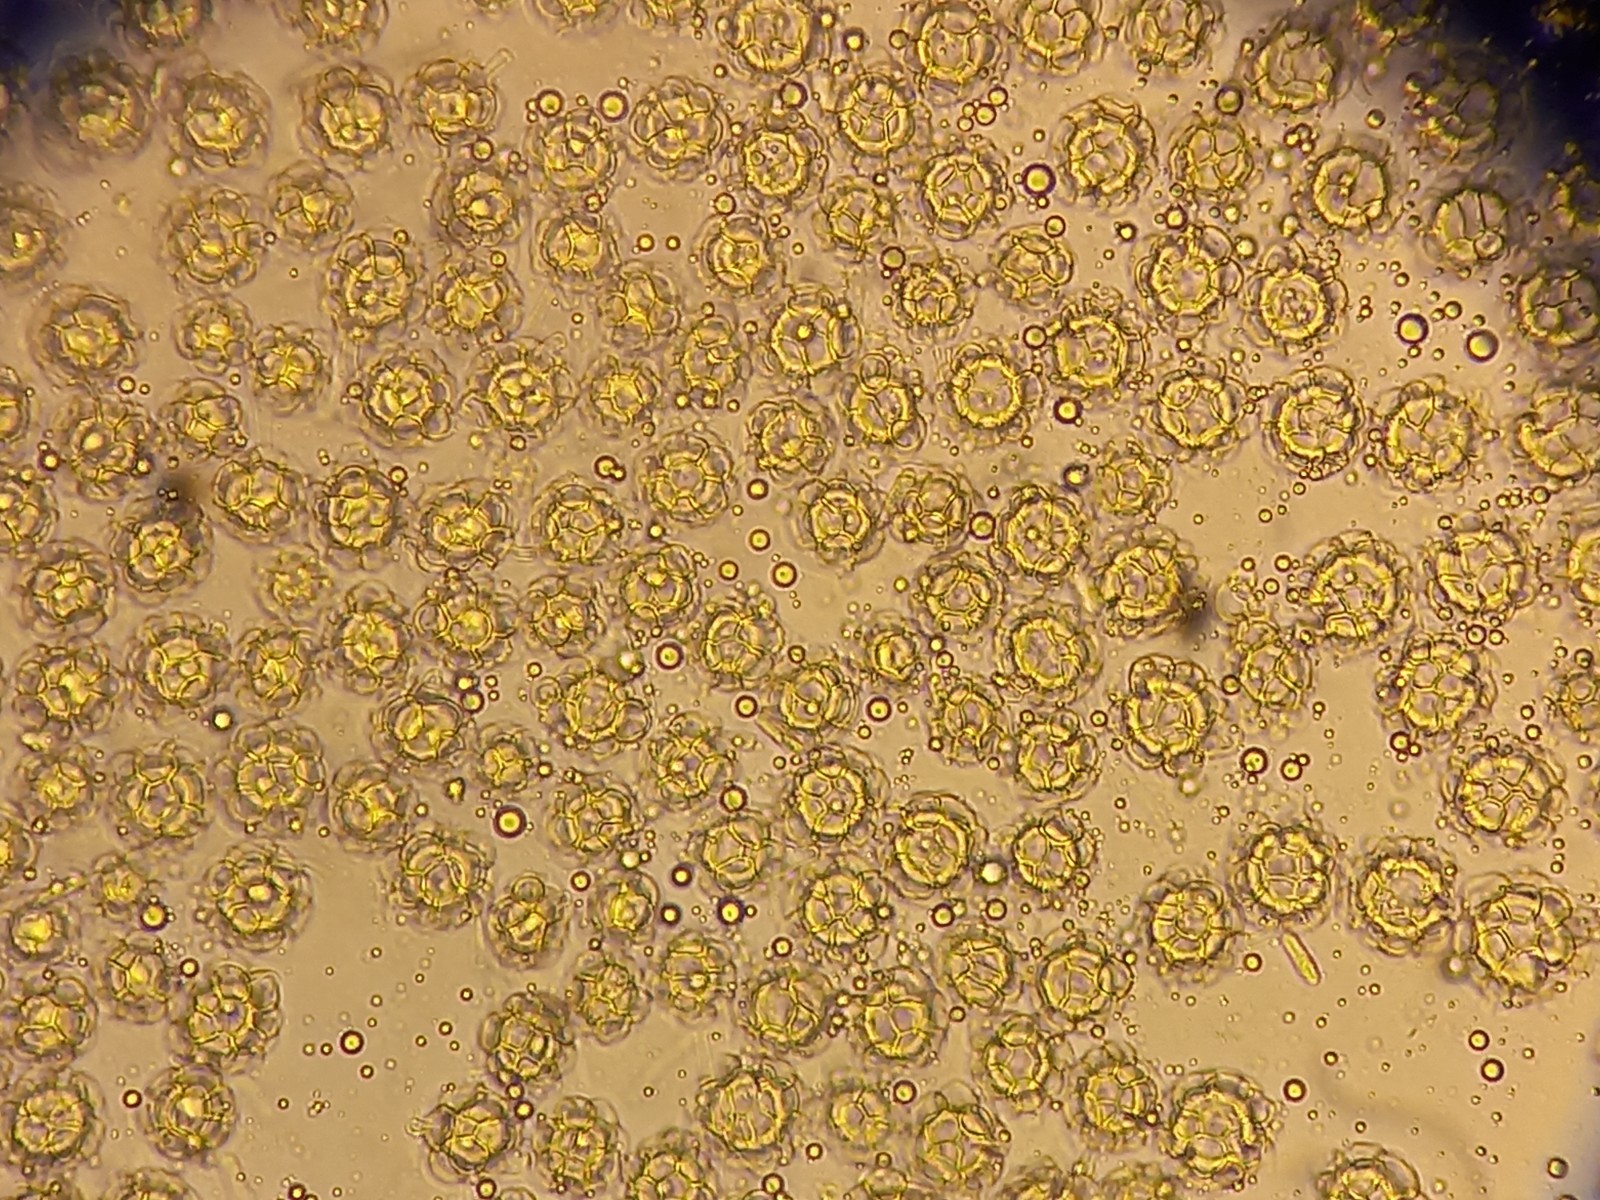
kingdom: Fungi
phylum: Ascomycota
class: Sordariomycetes
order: Hypocreales
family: Hypocreaceae
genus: Hypomyces
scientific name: Hypomyces papulasporae
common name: jordtunge-snylteskorpe
